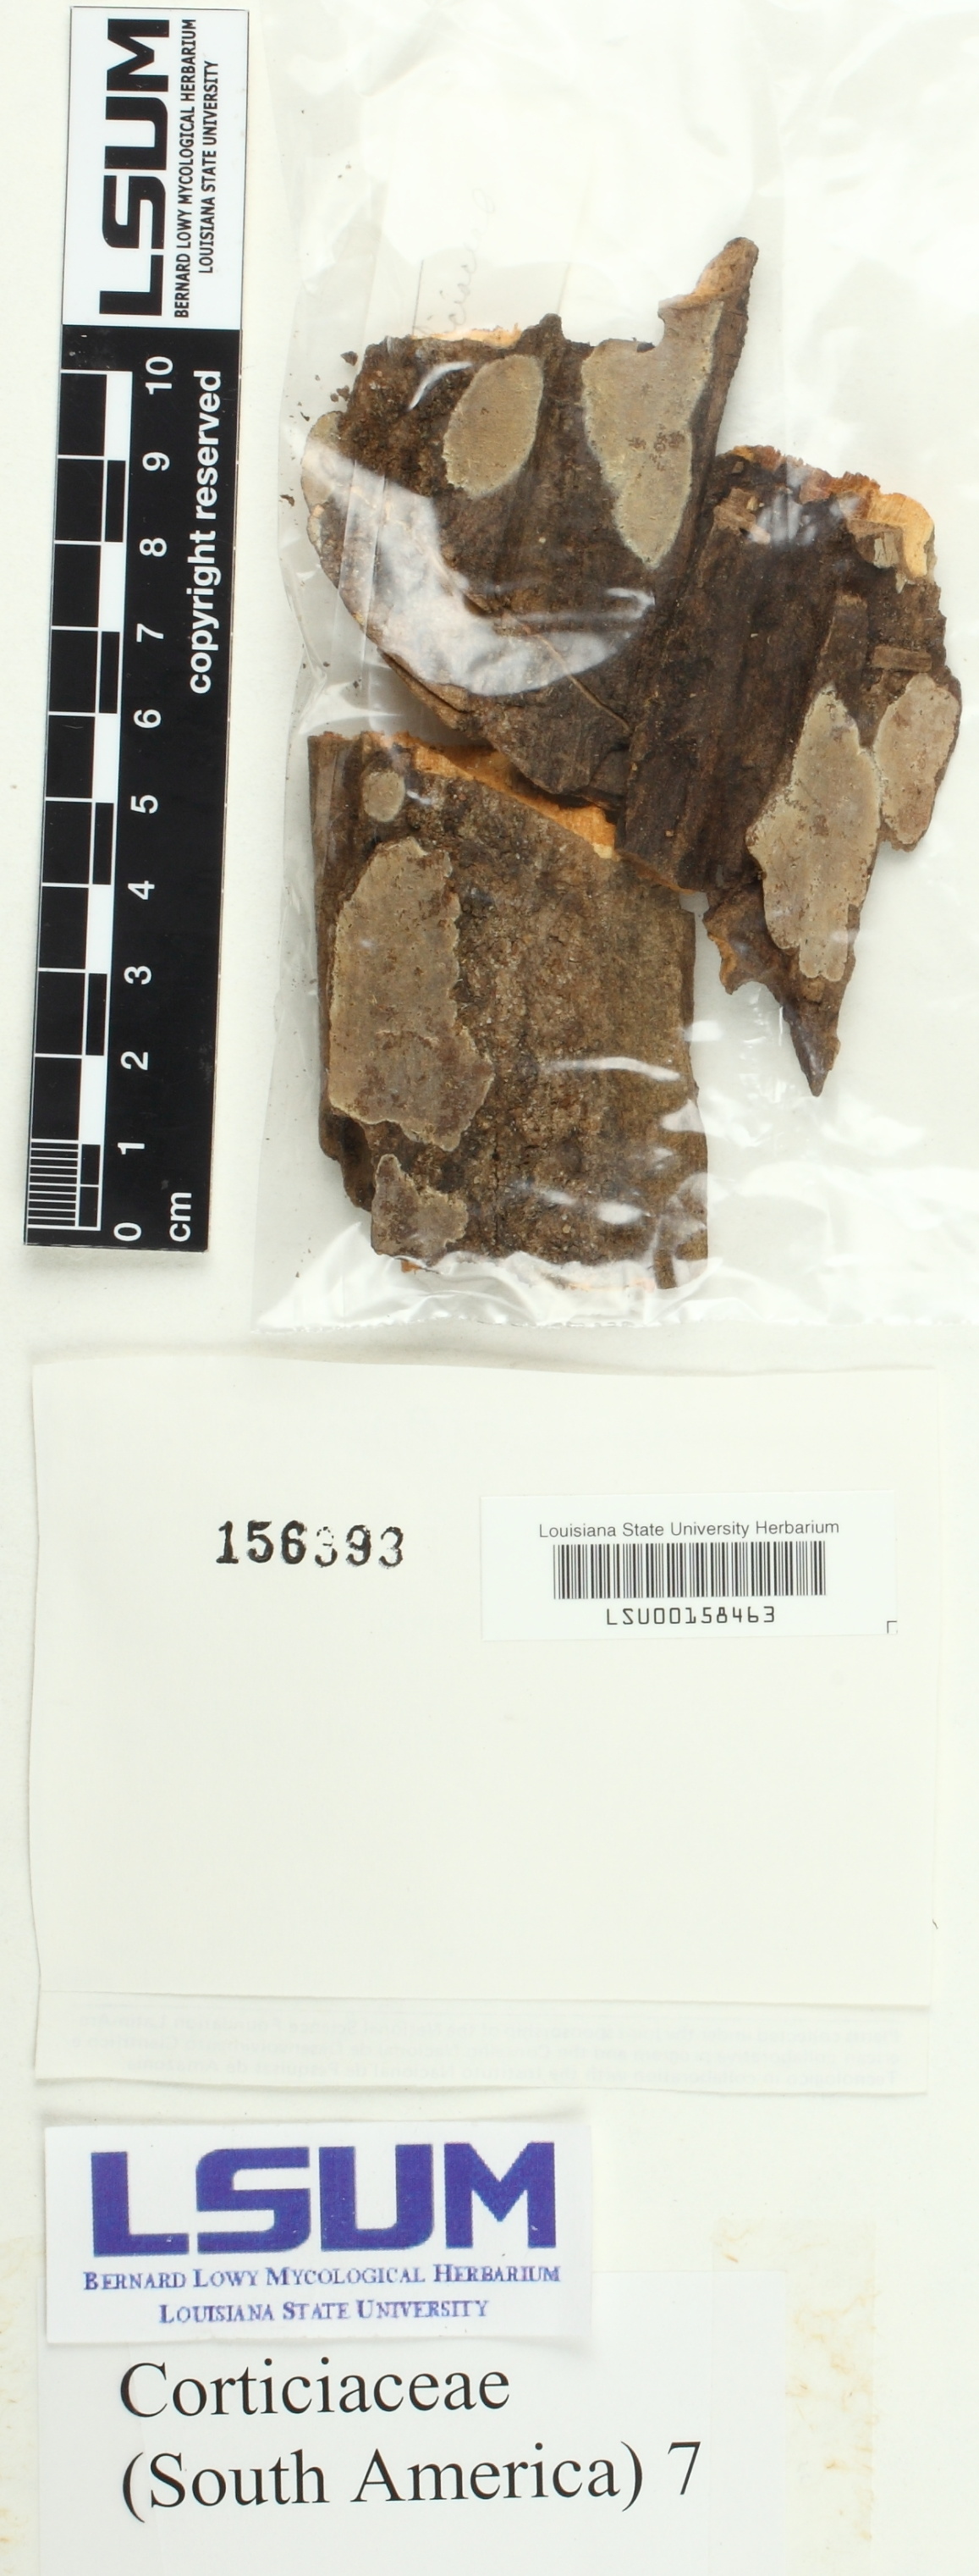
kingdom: Fungi
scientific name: Fungi
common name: Fungi
